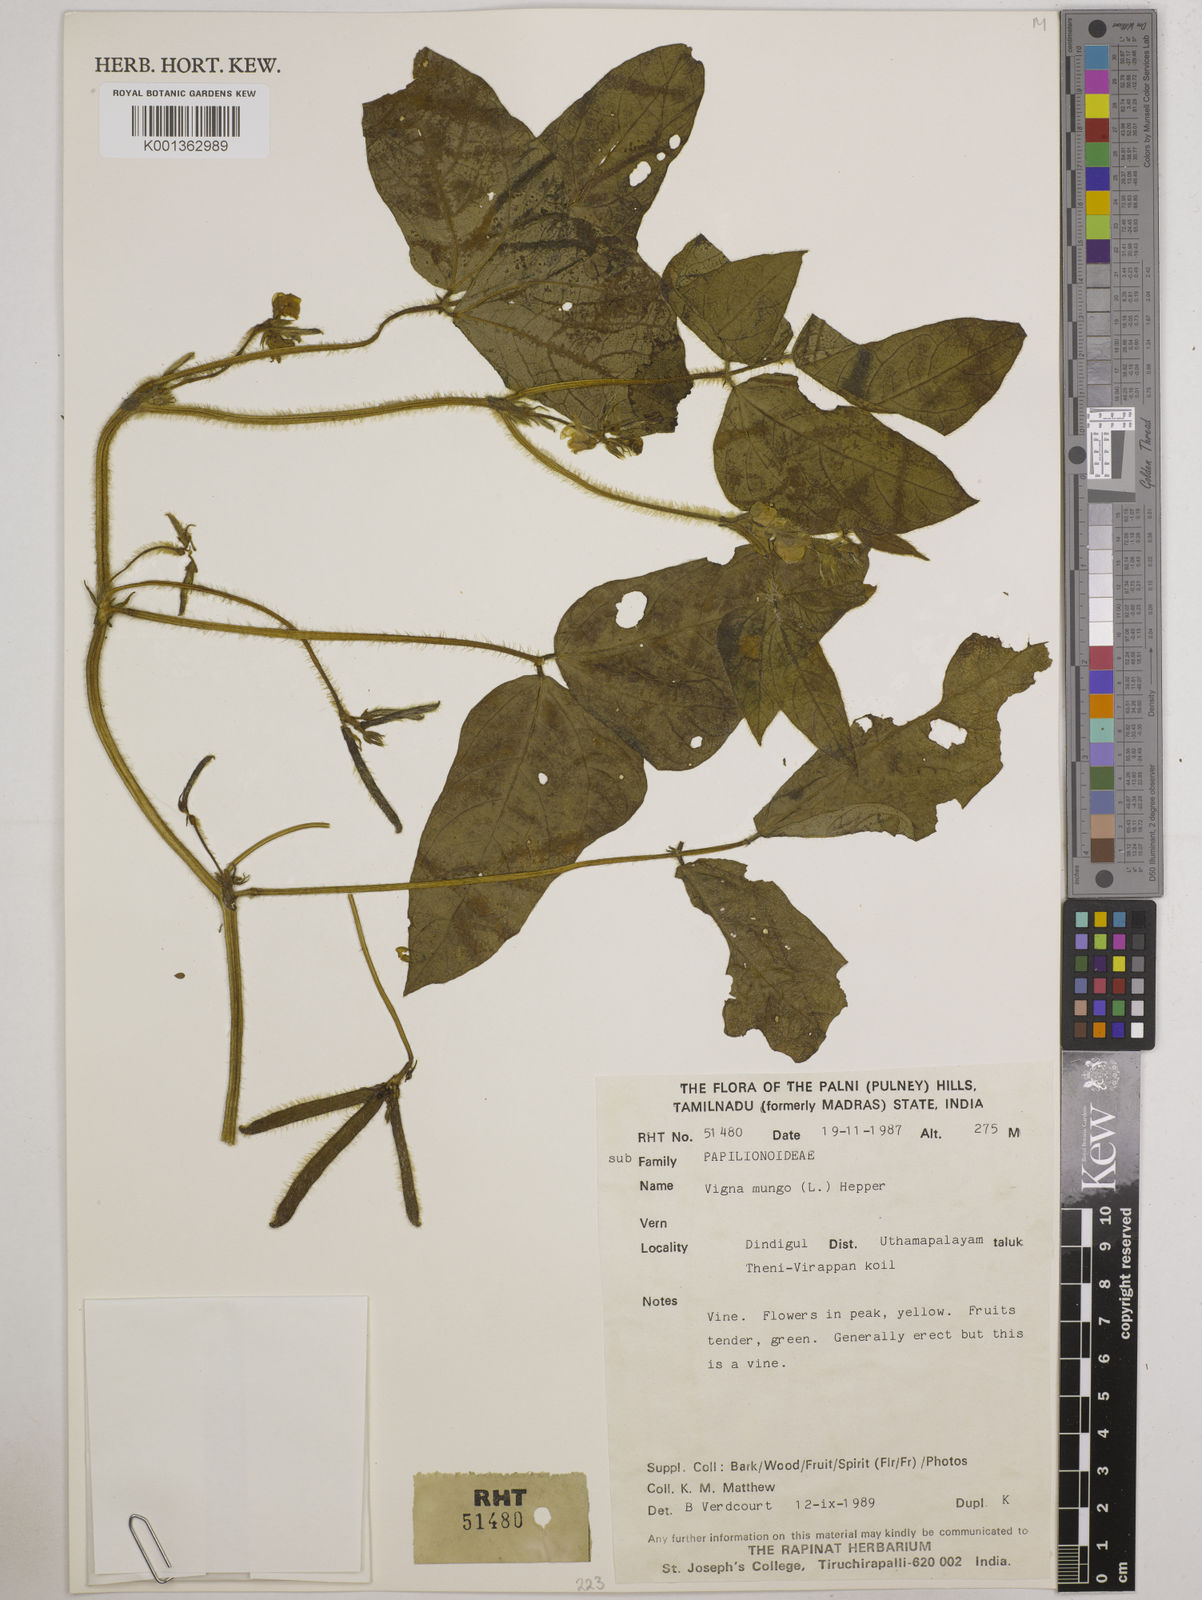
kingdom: Plantae
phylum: Tracheophyta
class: Magnoliopsida
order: Fabales
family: Fabaceae
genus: Vigna
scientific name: Vigna mungo
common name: Black gram
